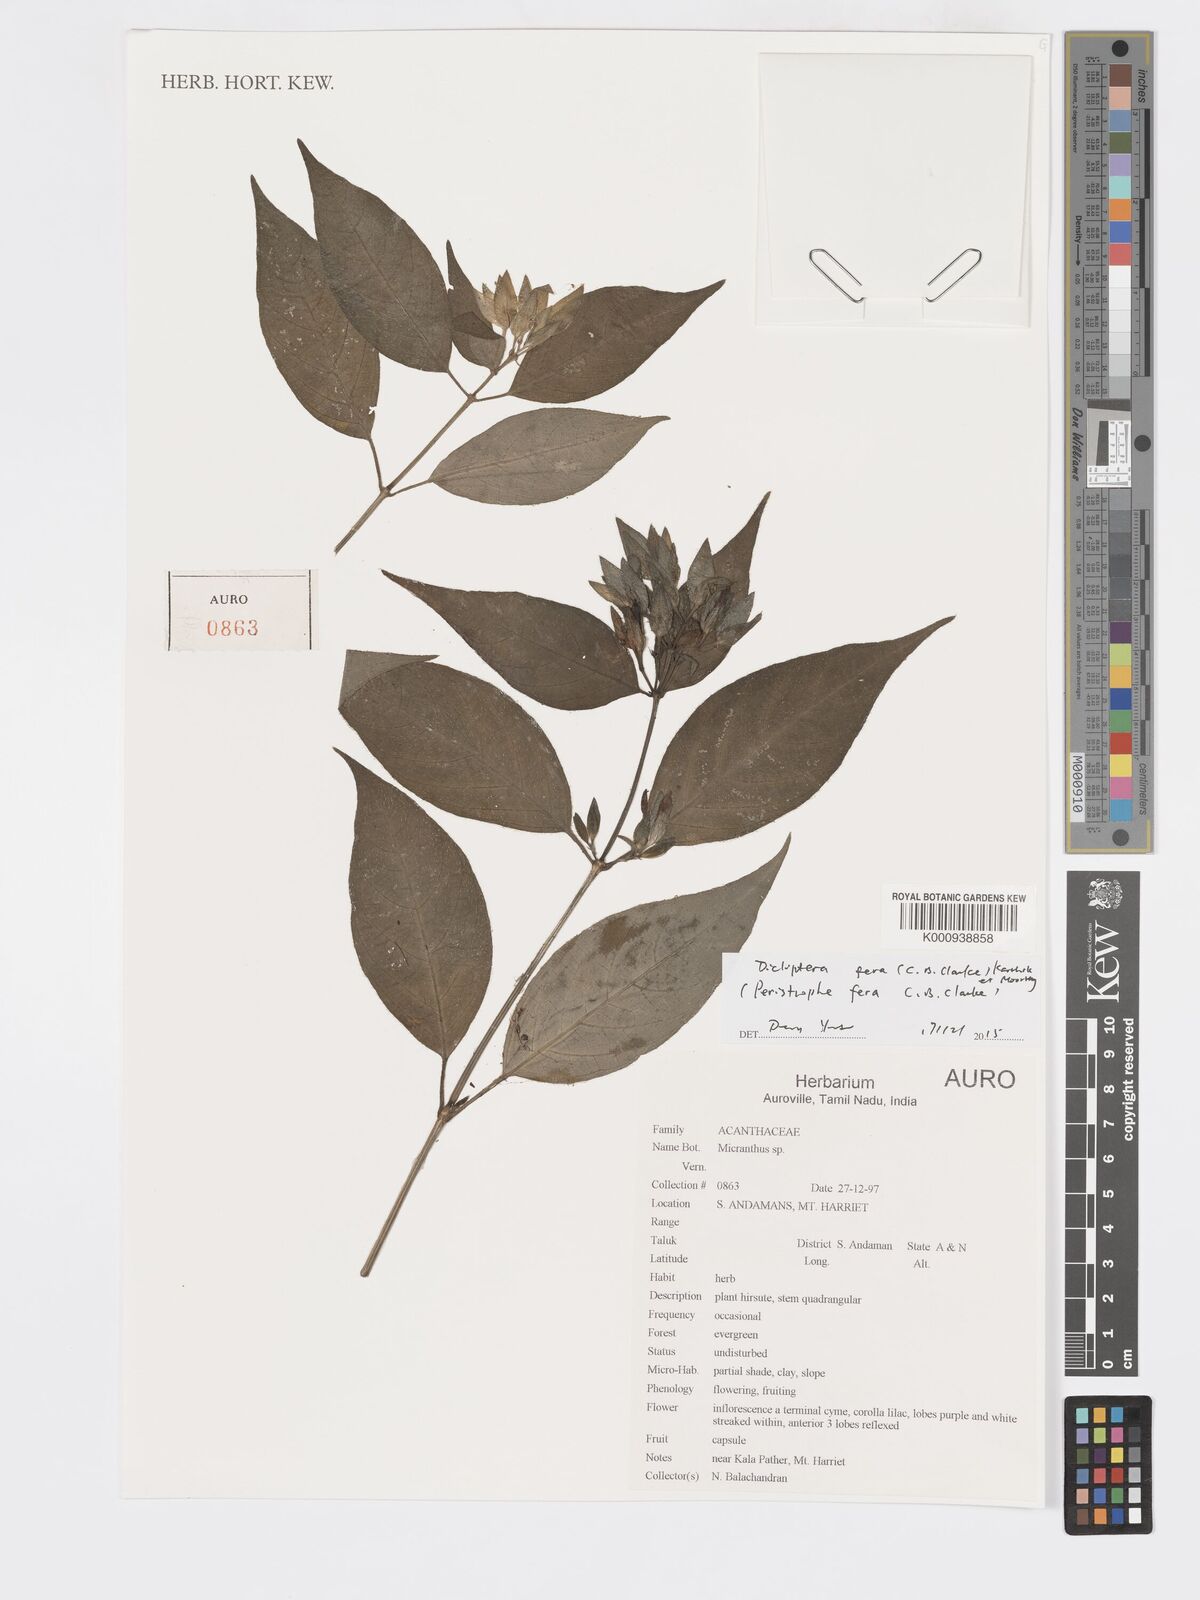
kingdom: Plantae
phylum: Tracheophyta
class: Magnoliopsida
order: Lamiales
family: Acanthaceae
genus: Dicliptera
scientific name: Dicliptera fera
